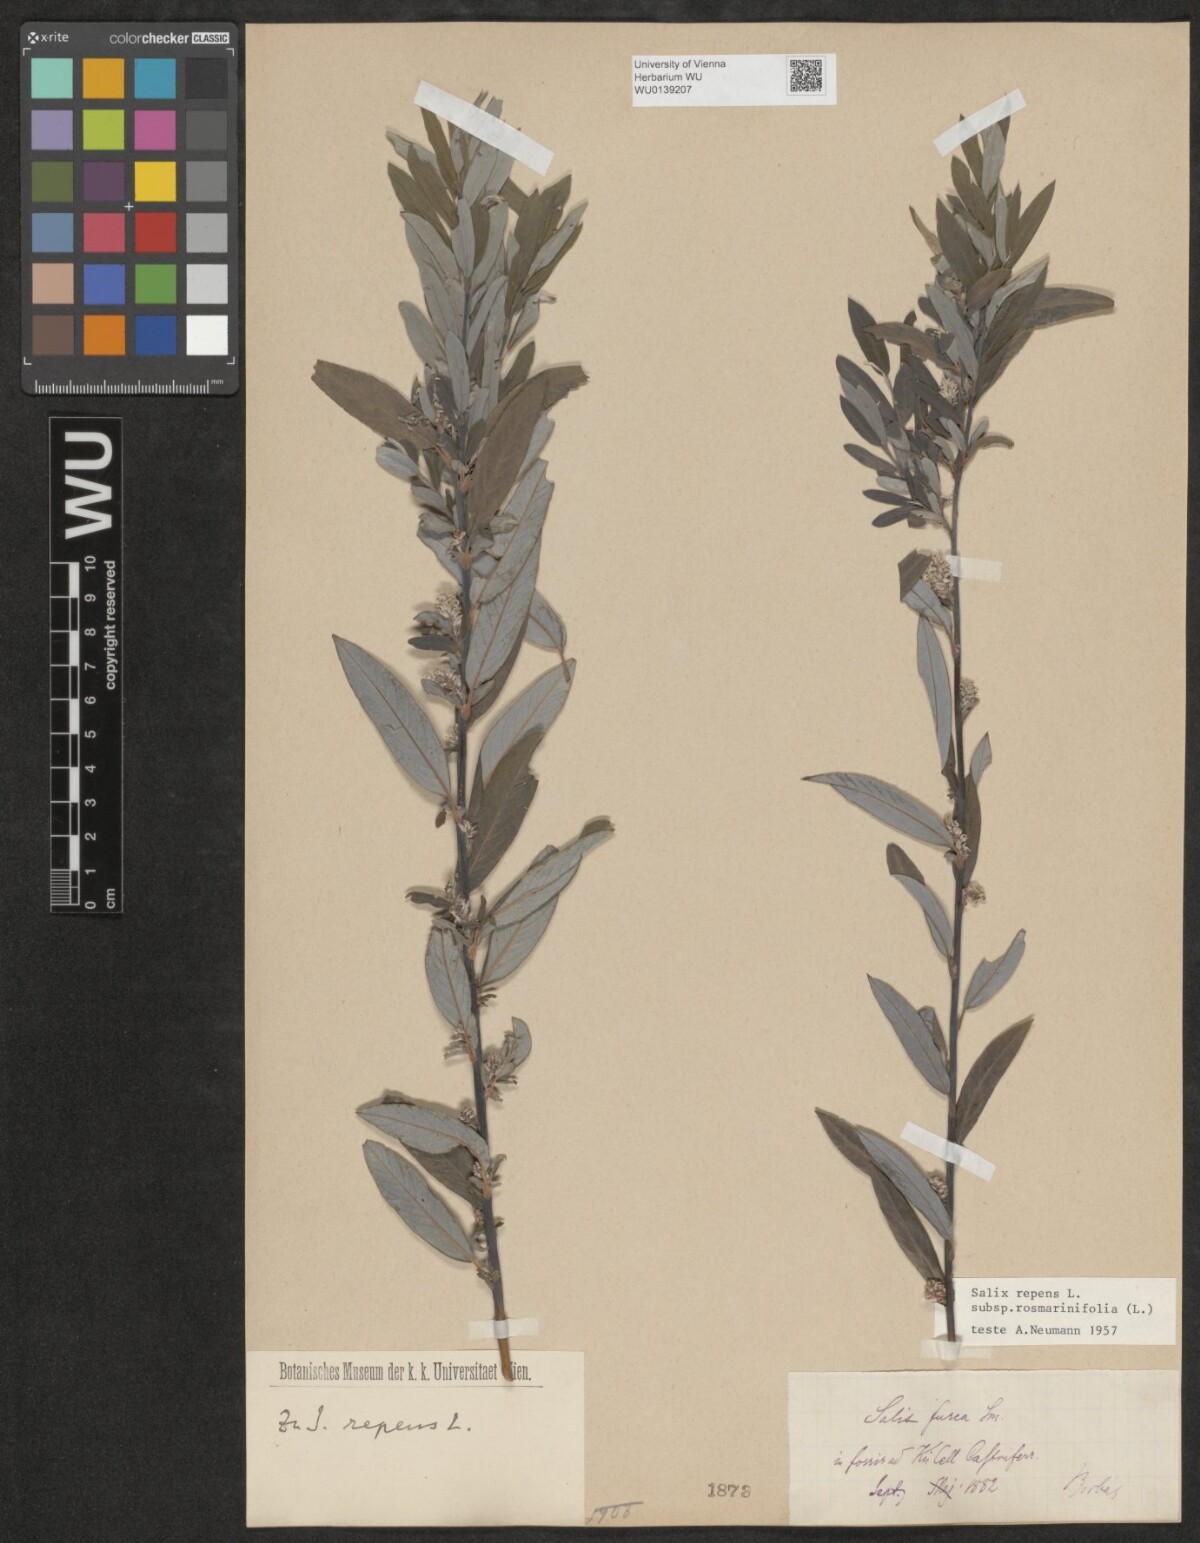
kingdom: Plantae
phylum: Tracheophyta
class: Magnoliopsida
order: Malpighiales
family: Salicaceae
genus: Salix
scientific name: Salix repens
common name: Creeping willow
